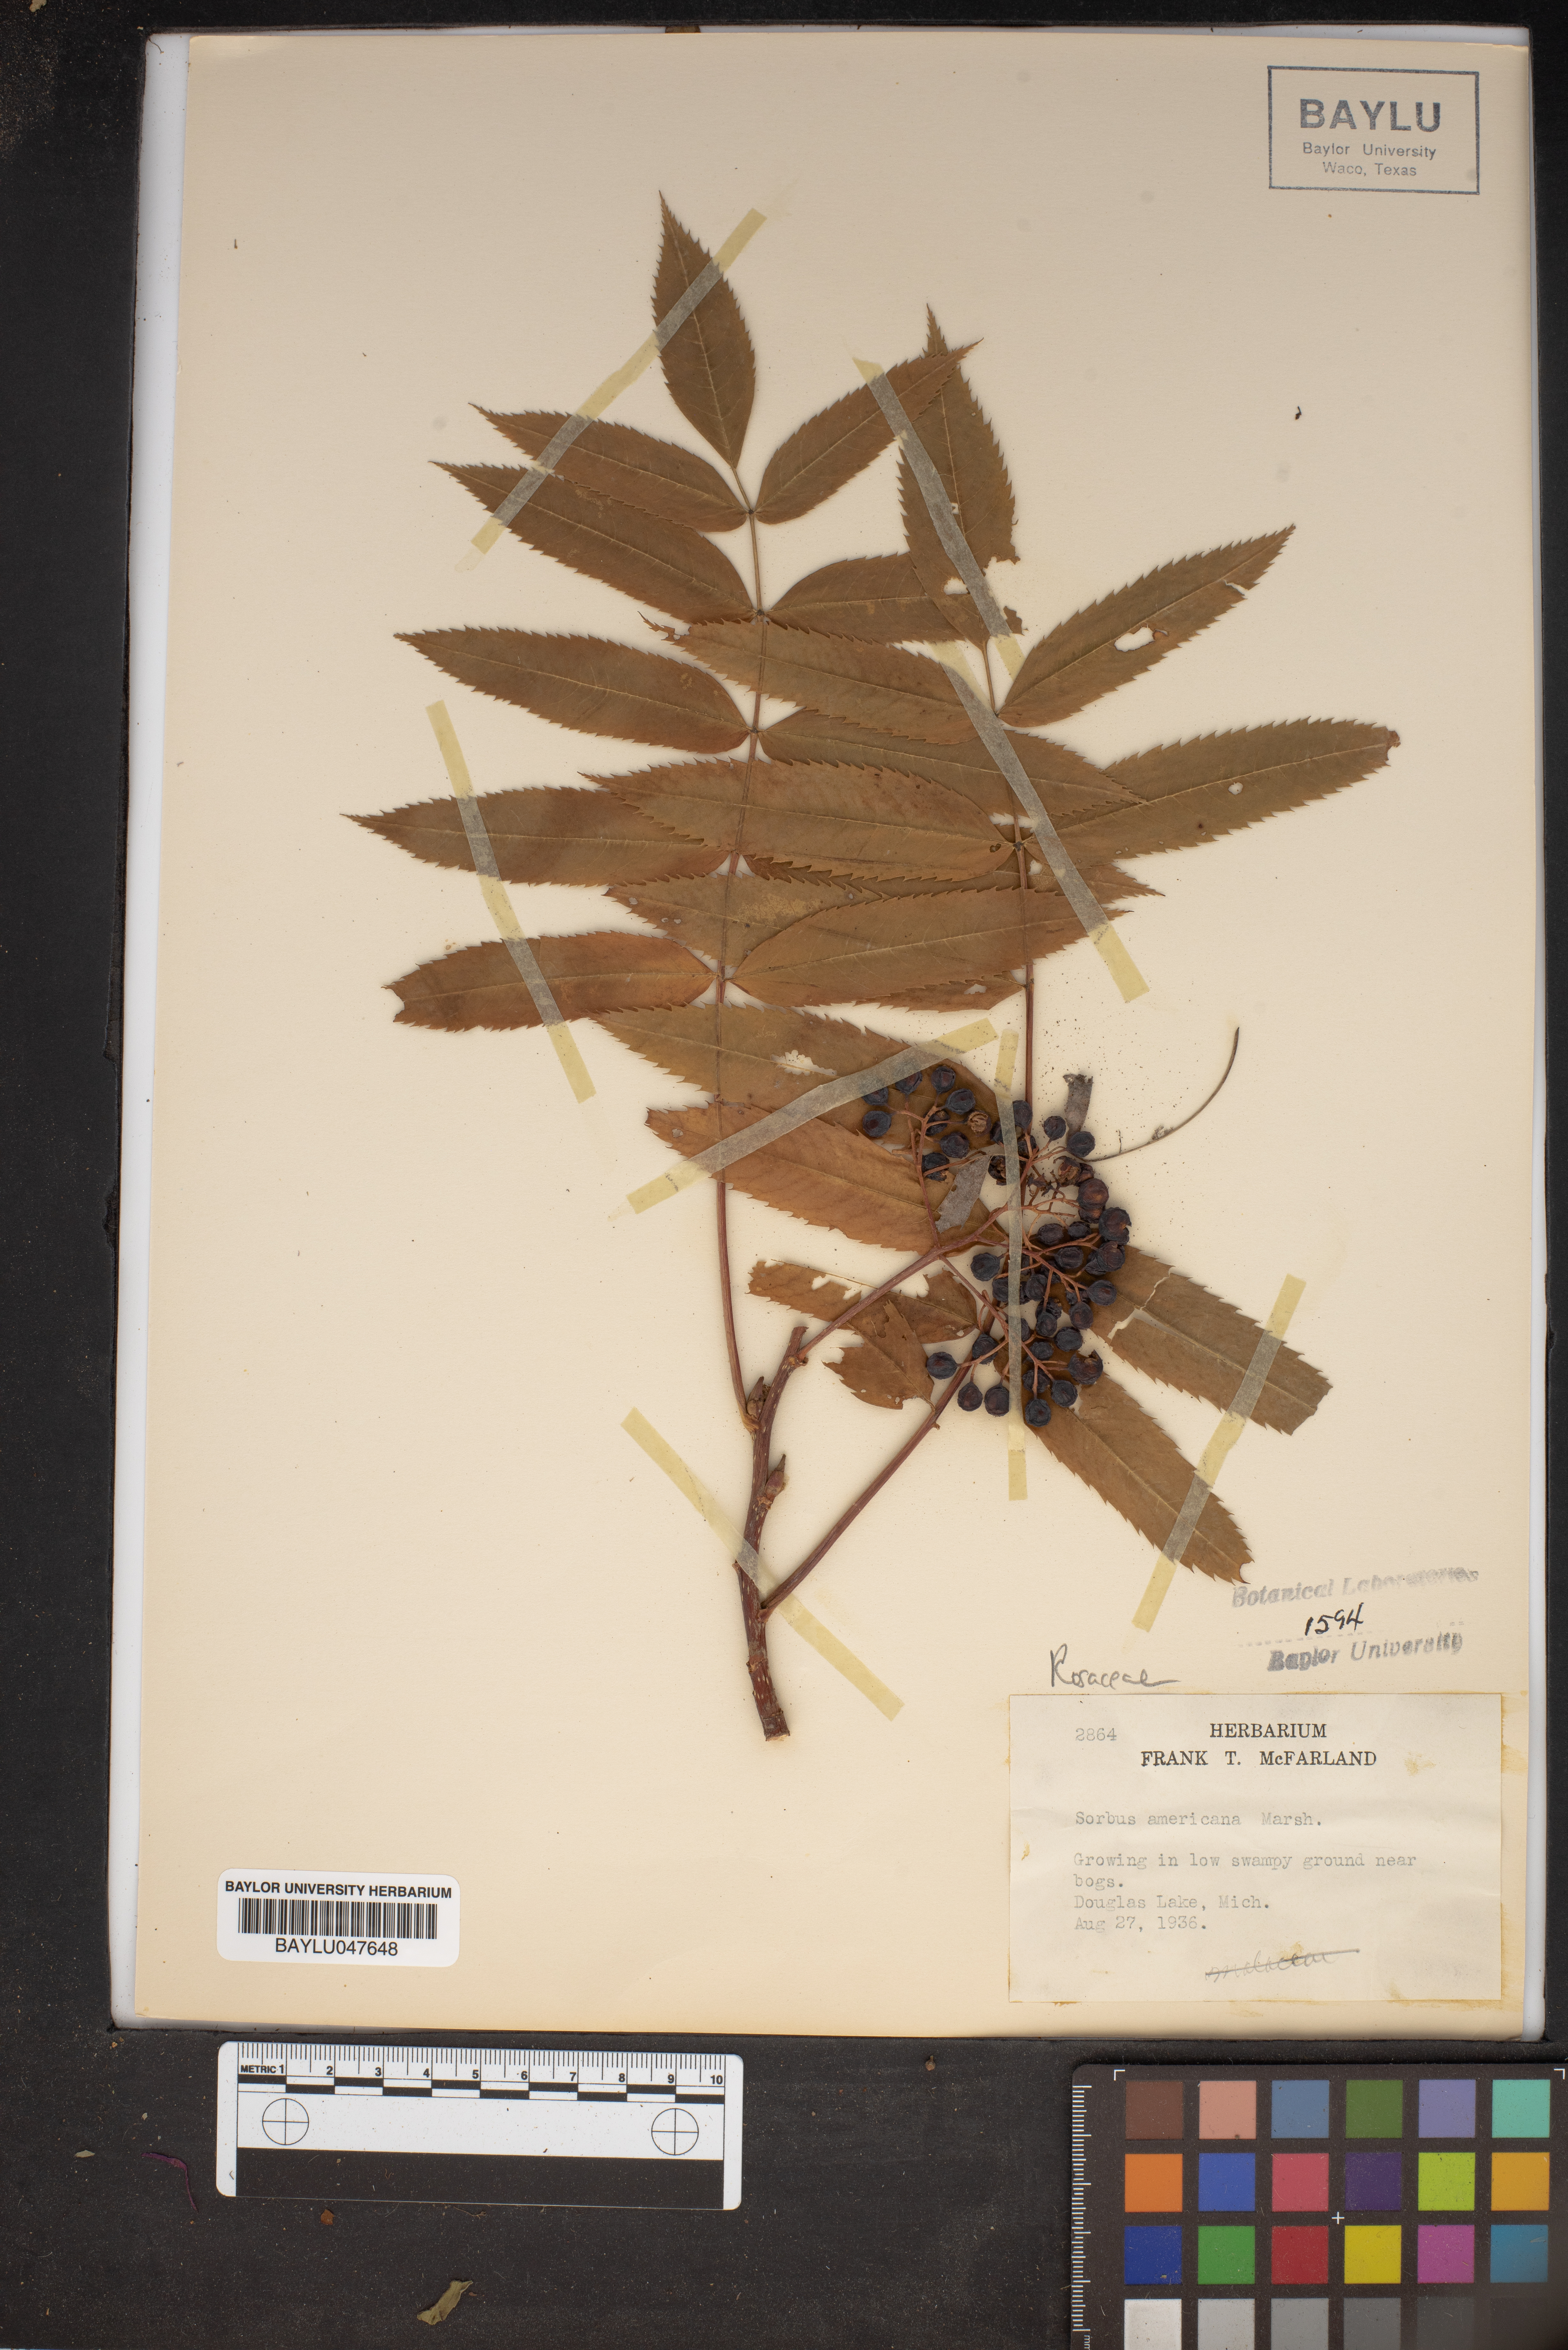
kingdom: Plantae
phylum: Tracheophyta
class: Magnoliopsida
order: Rosales
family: Rosaceae
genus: Sorbus
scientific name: Sorbus americana
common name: American mountain-ash
